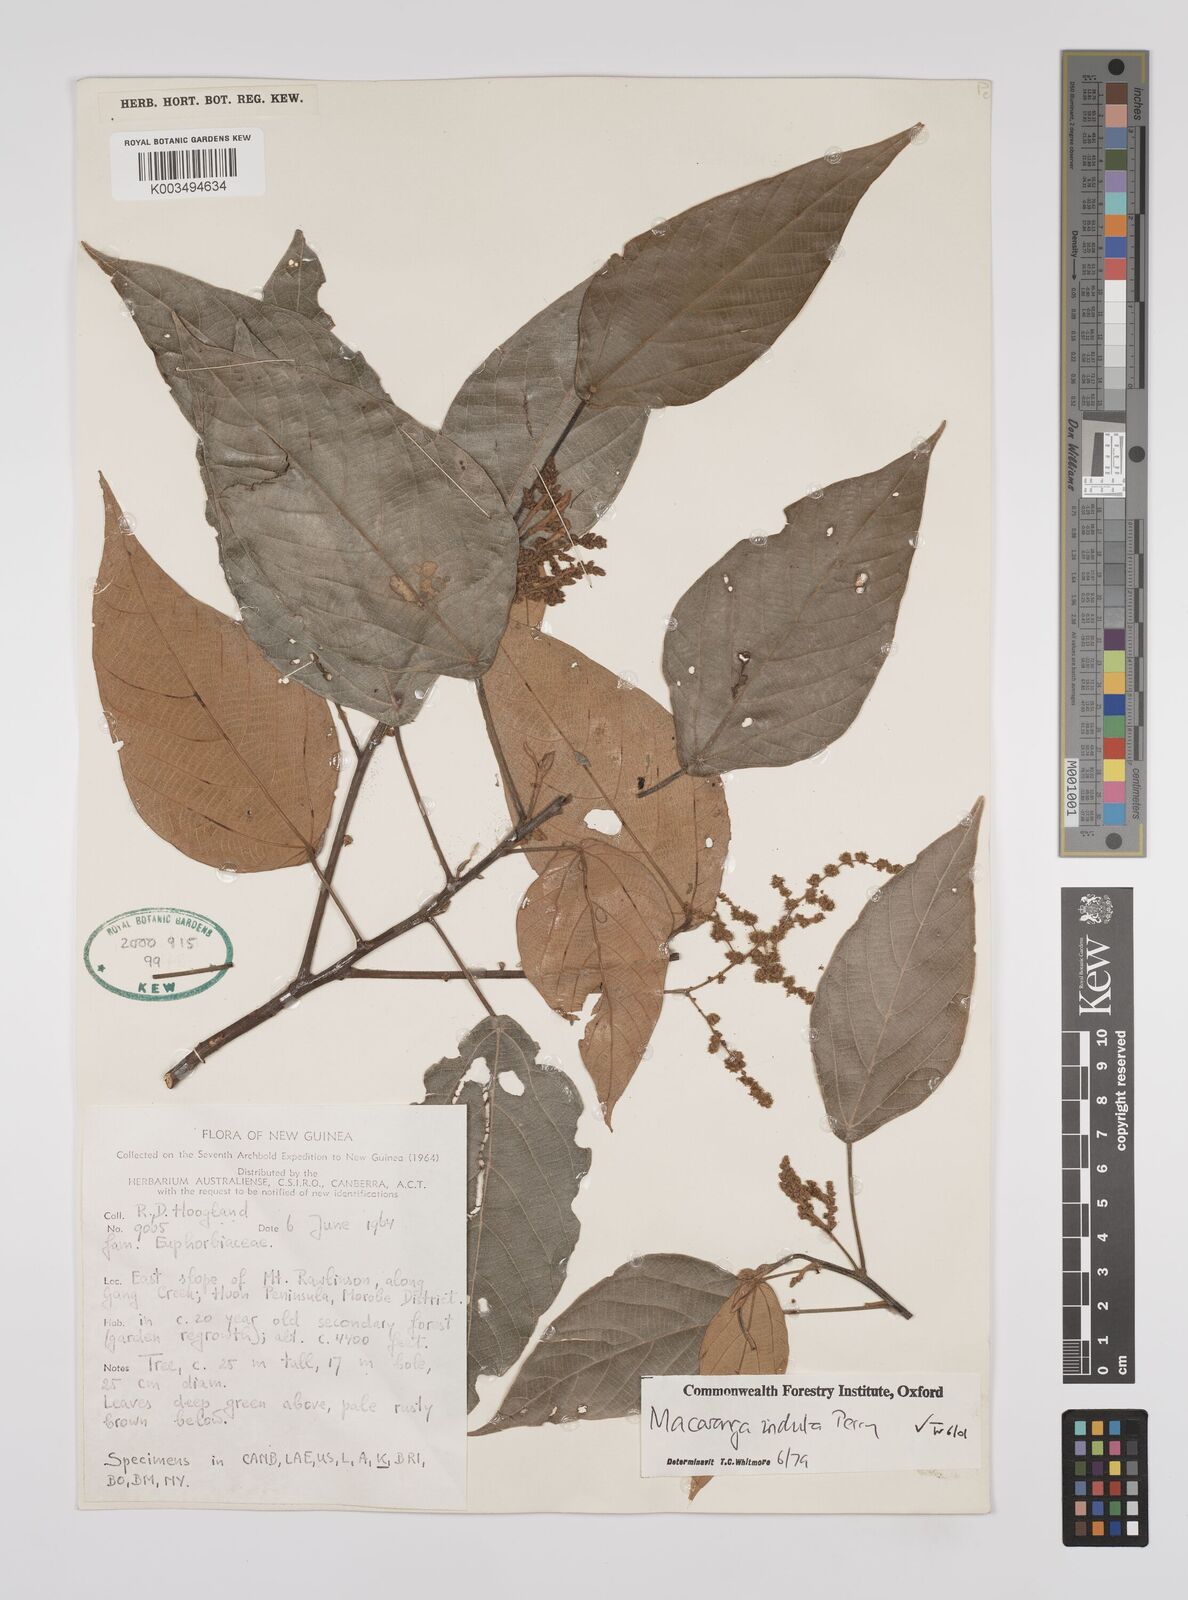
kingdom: Plantae
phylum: Tracheophyta
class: Magnoliopsida
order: Malpighiales
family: Euphorbiaceae
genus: Macaranga
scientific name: Macaranga induta
